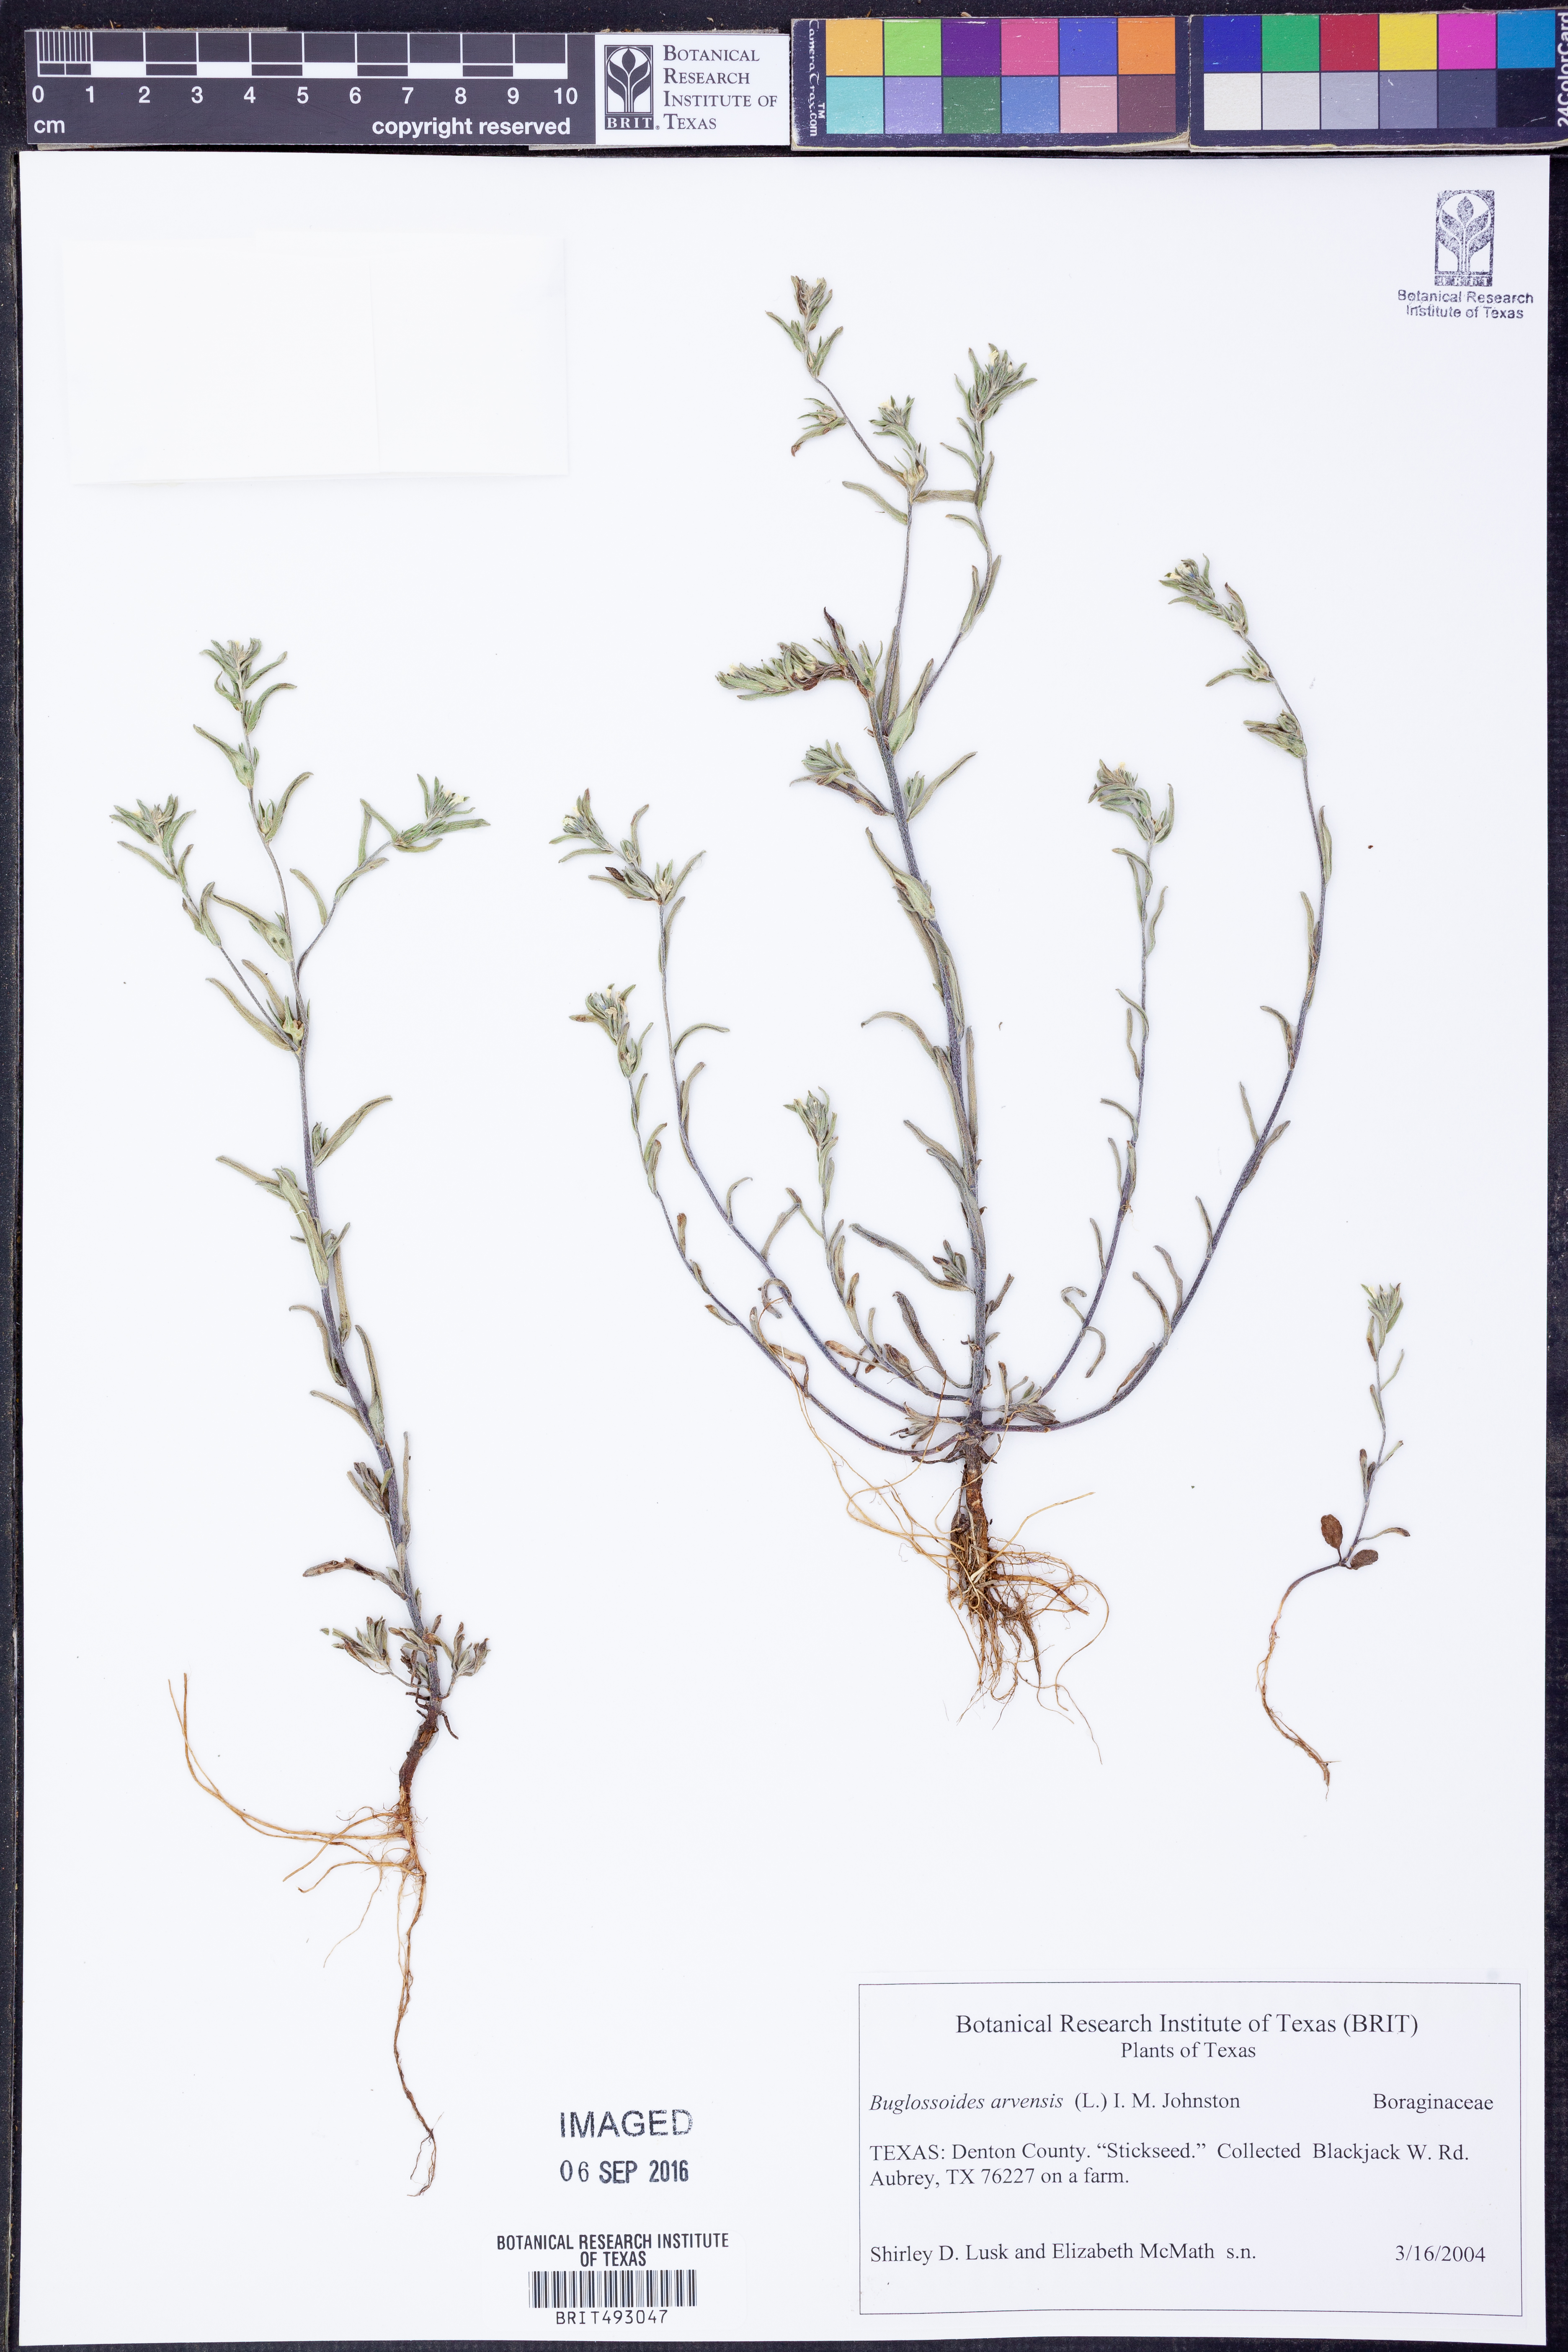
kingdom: Plantae
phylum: Tracheophyta
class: Magnoliopsida
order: Boraginales
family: Boraginaceae
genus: Buglossoides
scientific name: Buglossoides arvensis
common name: Corn gromwell
